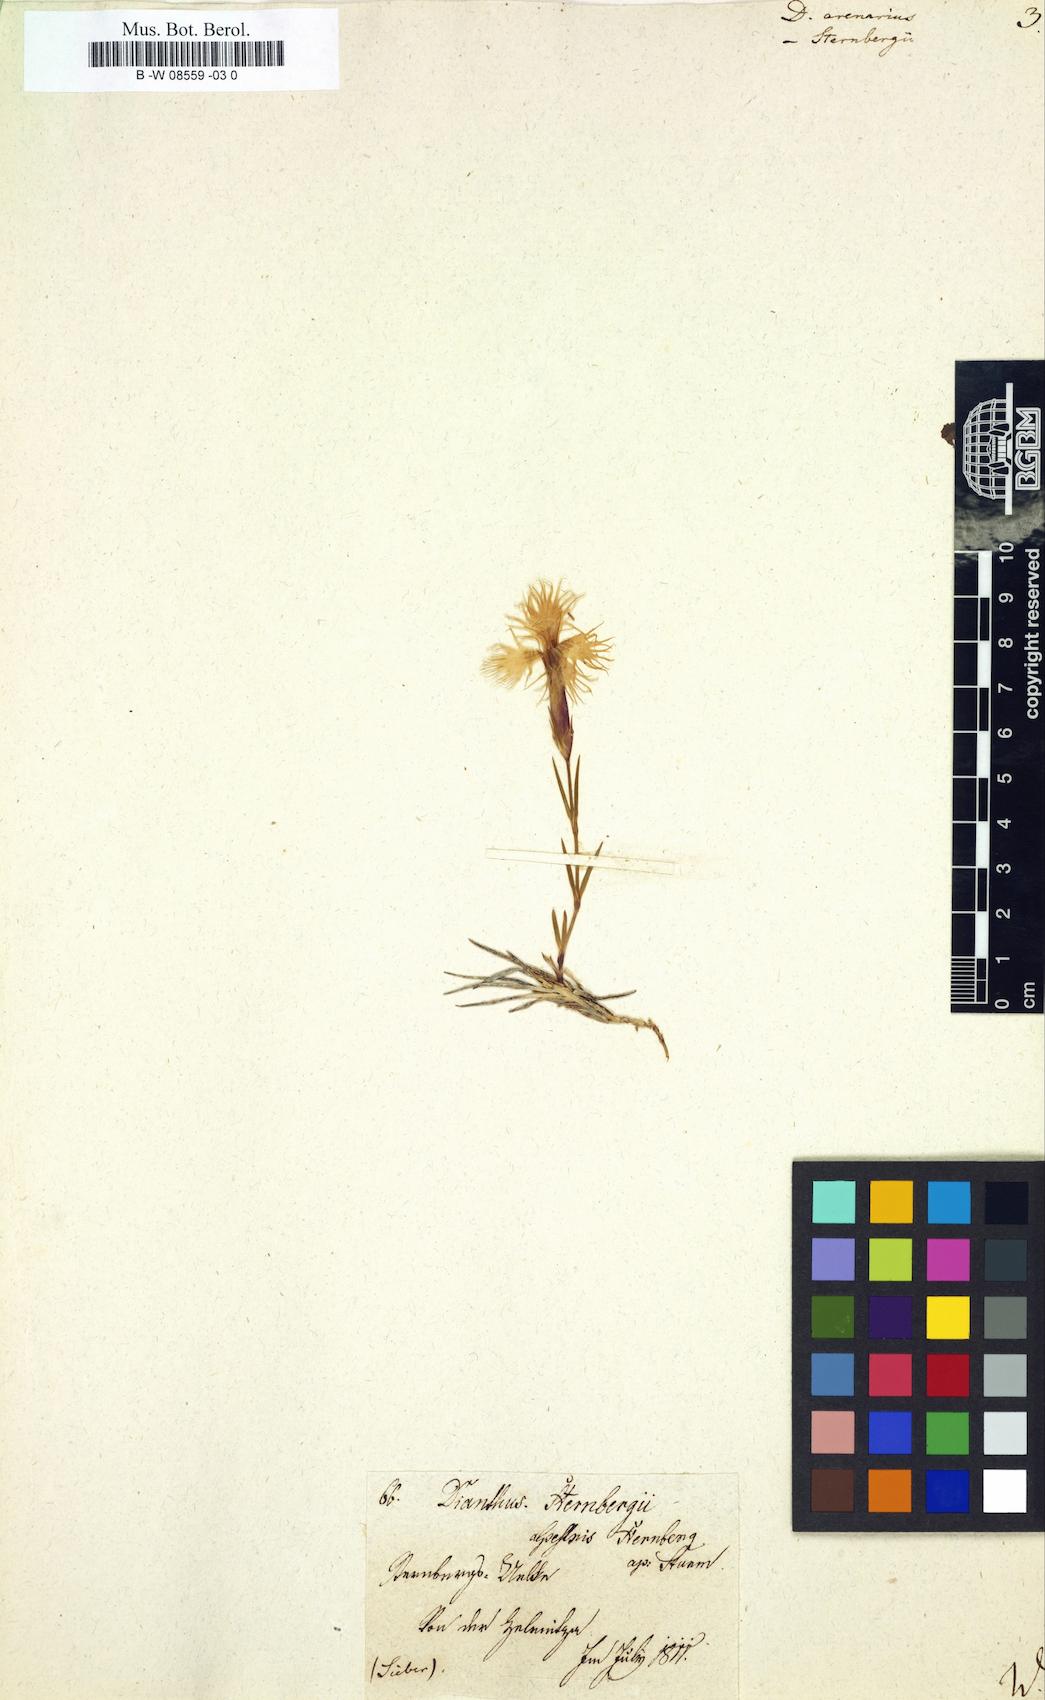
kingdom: Plantae
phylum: Tracheophyta
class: Magnoliopsida
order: Caryophyllales
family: Caryophyllaceae
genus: Dianthus
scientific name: Dianthus arenarius
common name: Stone pink
